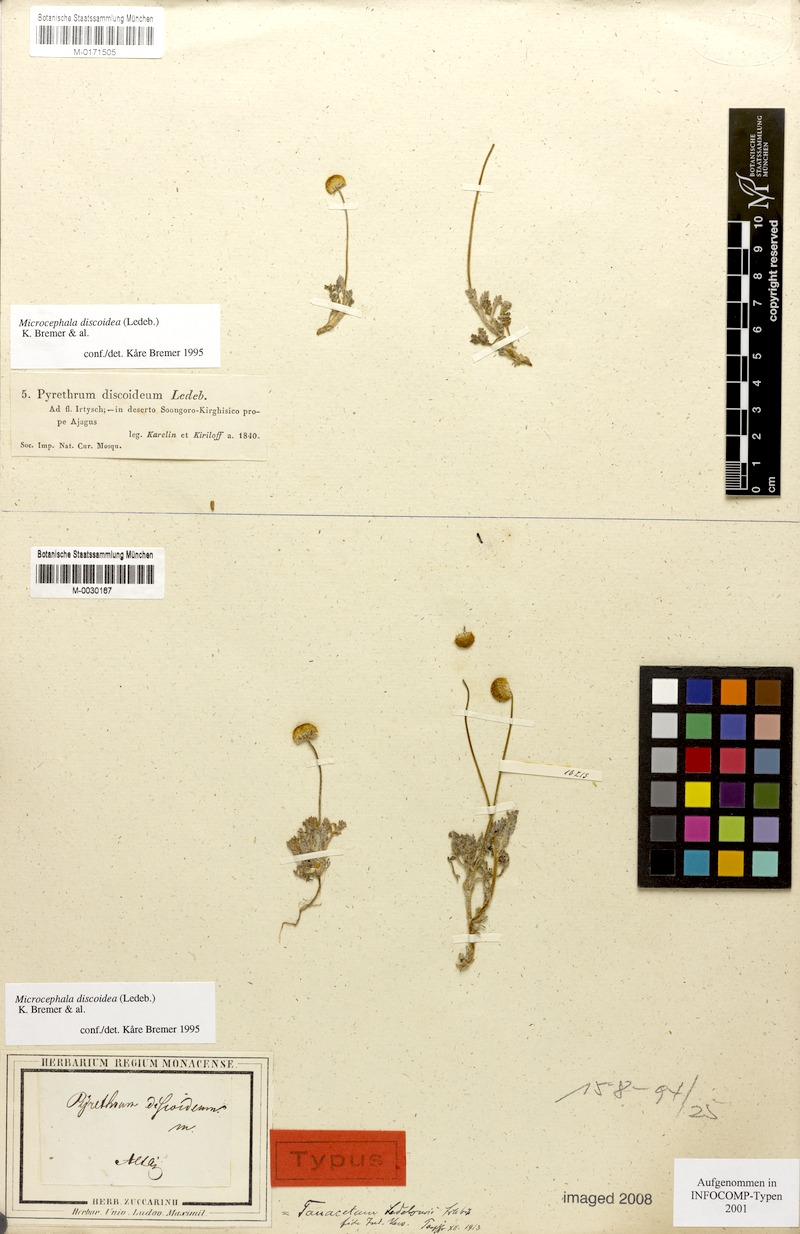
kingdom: Plantae
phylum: Tracheophyta
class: Magnoliopsida
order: Asterales
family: Asteraceae
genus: Cancrinia
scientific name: Cancrinia discoidea
